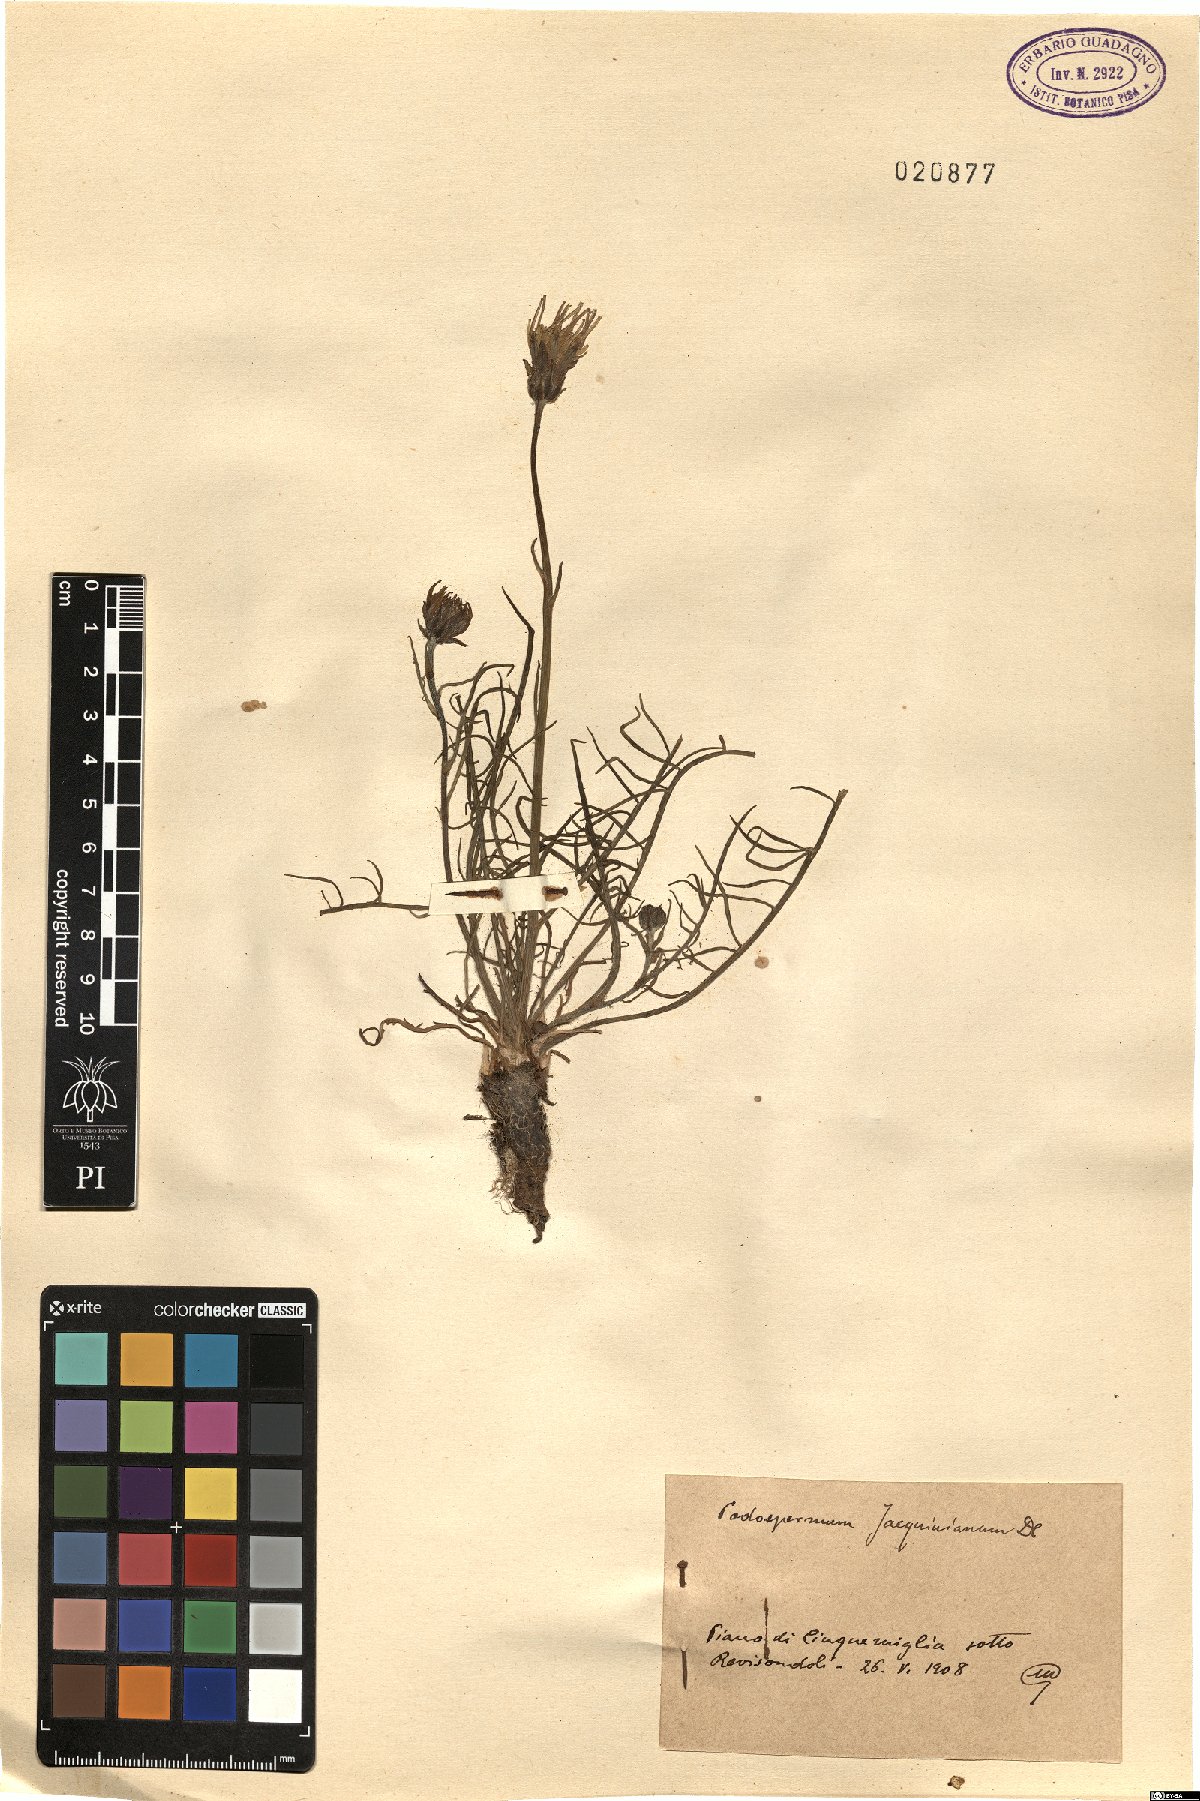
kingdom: Plantae
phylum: Tracheophyta
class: Magnoliopsida
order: Asterales
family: Asteraceae
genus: Scorzonera
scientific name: Scorzonera cana
